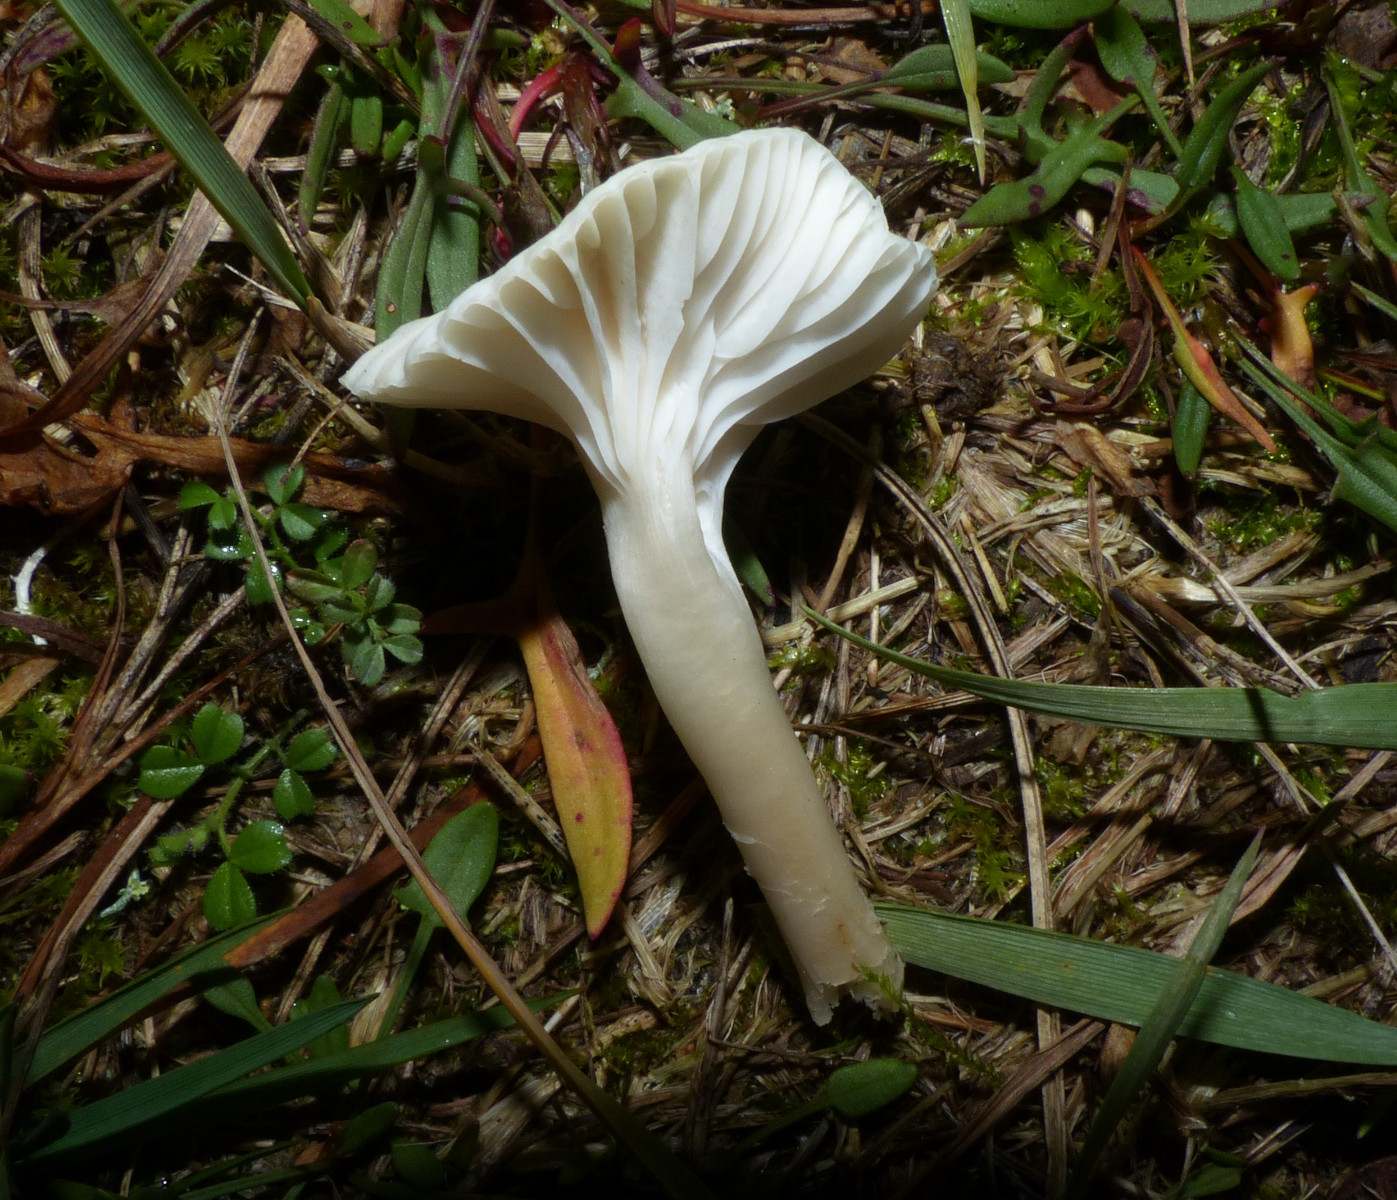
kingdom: Fungi
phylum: Basidiomycota
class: Agaricomycetes
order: Agaricales
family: Hygrophoraceae
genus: Cuphophyllus
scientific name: Cuphophyllus virgineus
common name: snehvid vokshat
